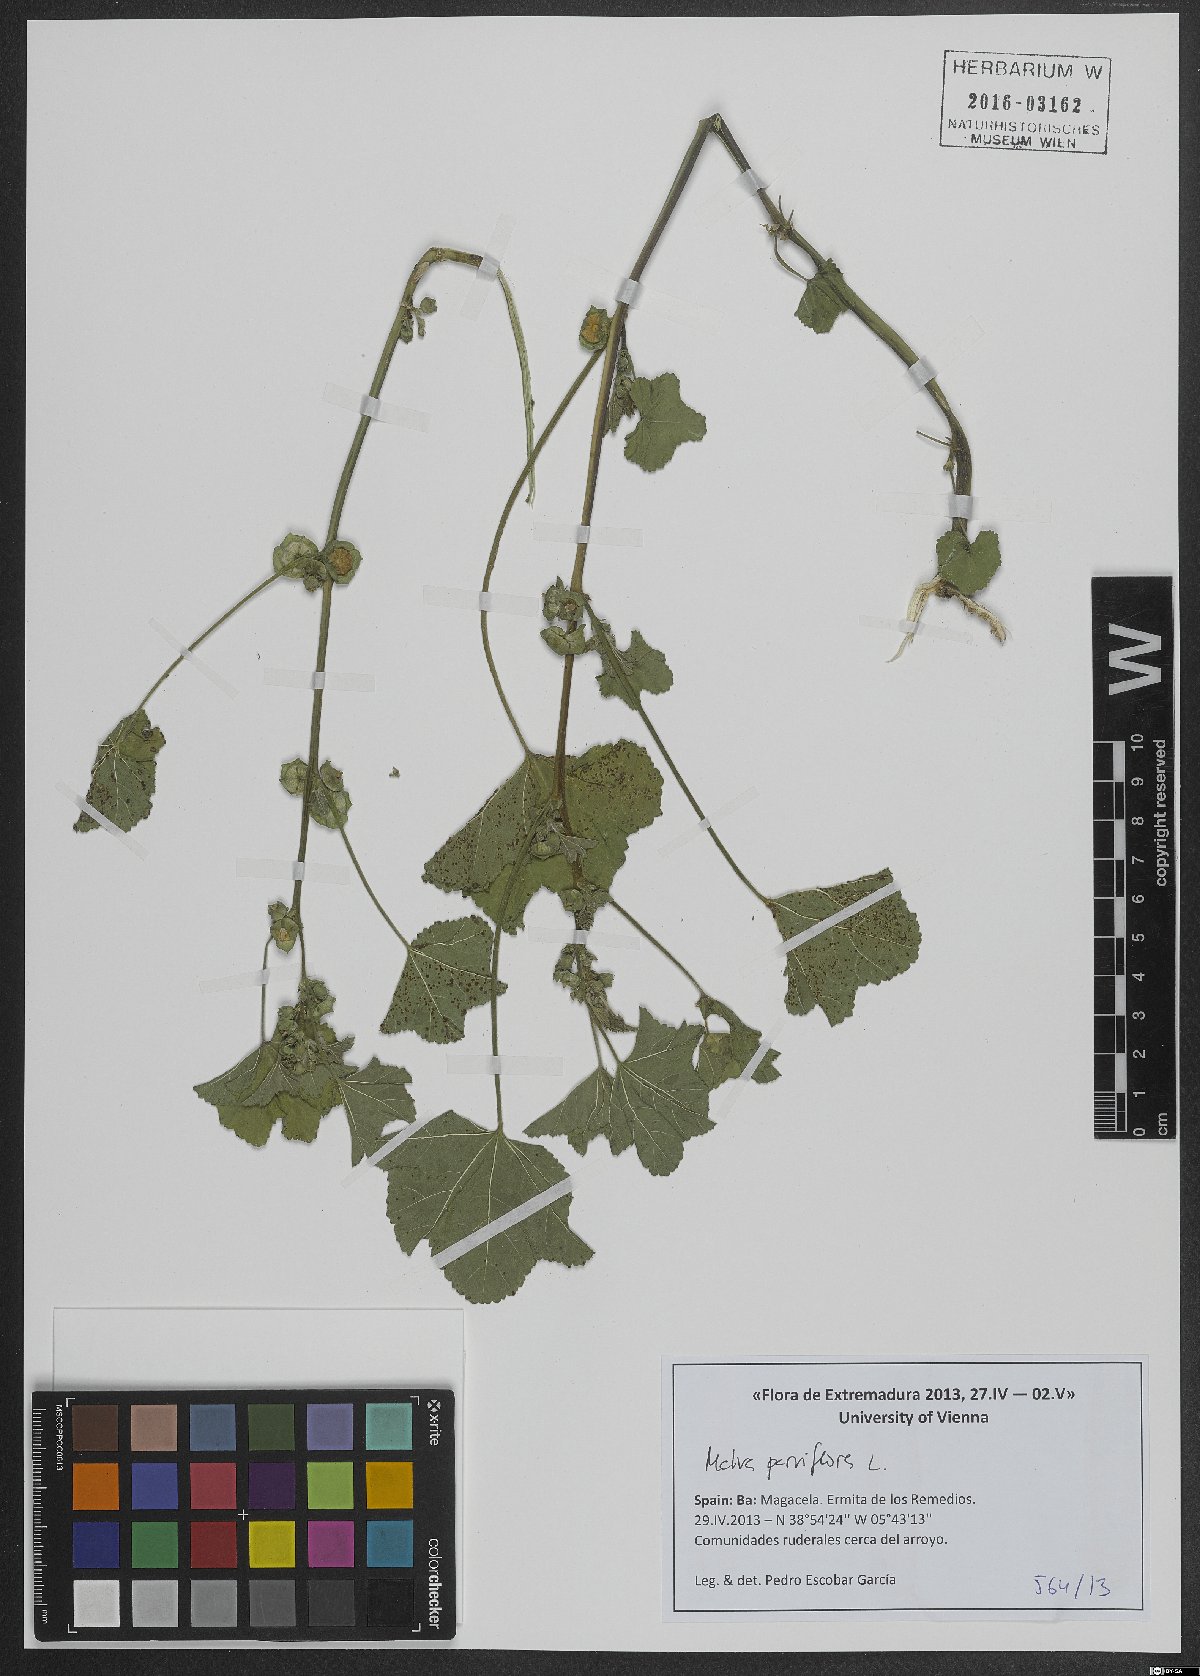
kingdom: Plantae
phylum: Tracheophyta
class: Magnoliopsida
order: Malvales
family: Malvaceae
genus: Malva
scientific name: Malva parviflora
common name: Least mallow
